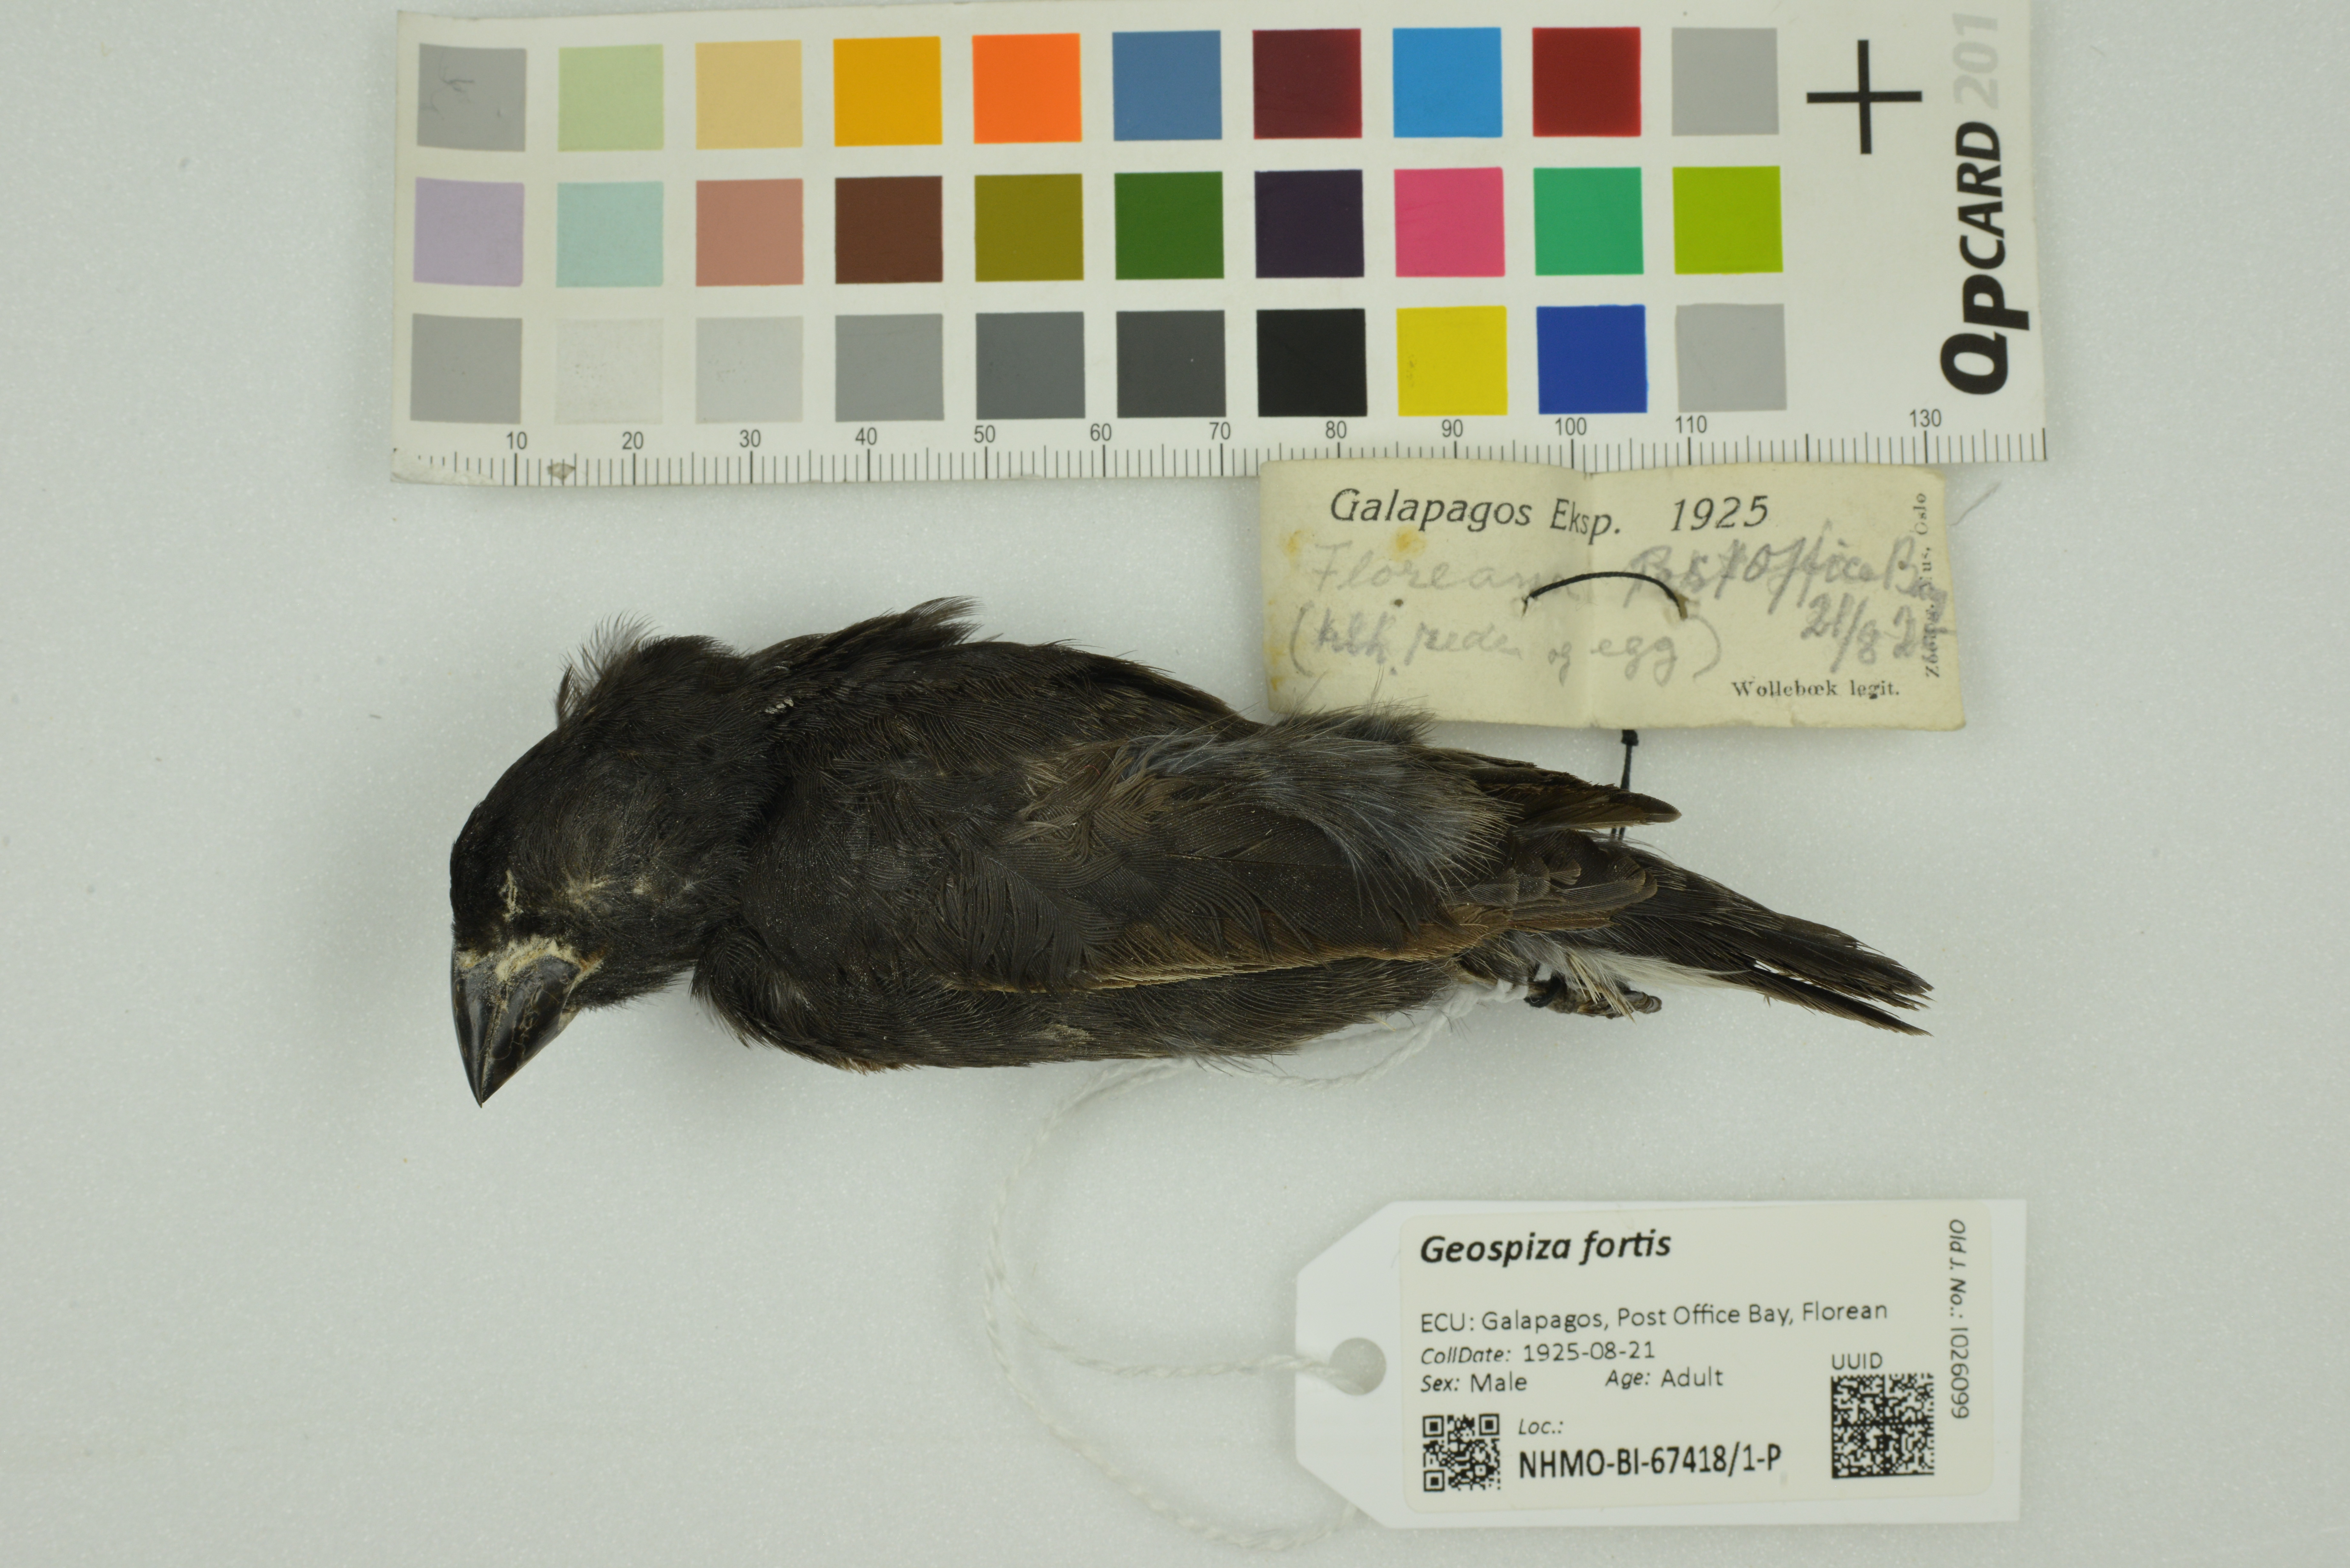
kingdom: Animalia
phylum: Chordata
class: Aves
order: Passeriformes
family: Thraupidae
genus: Geospiza
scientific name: Geospiza fortis
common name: Medium ground finch
